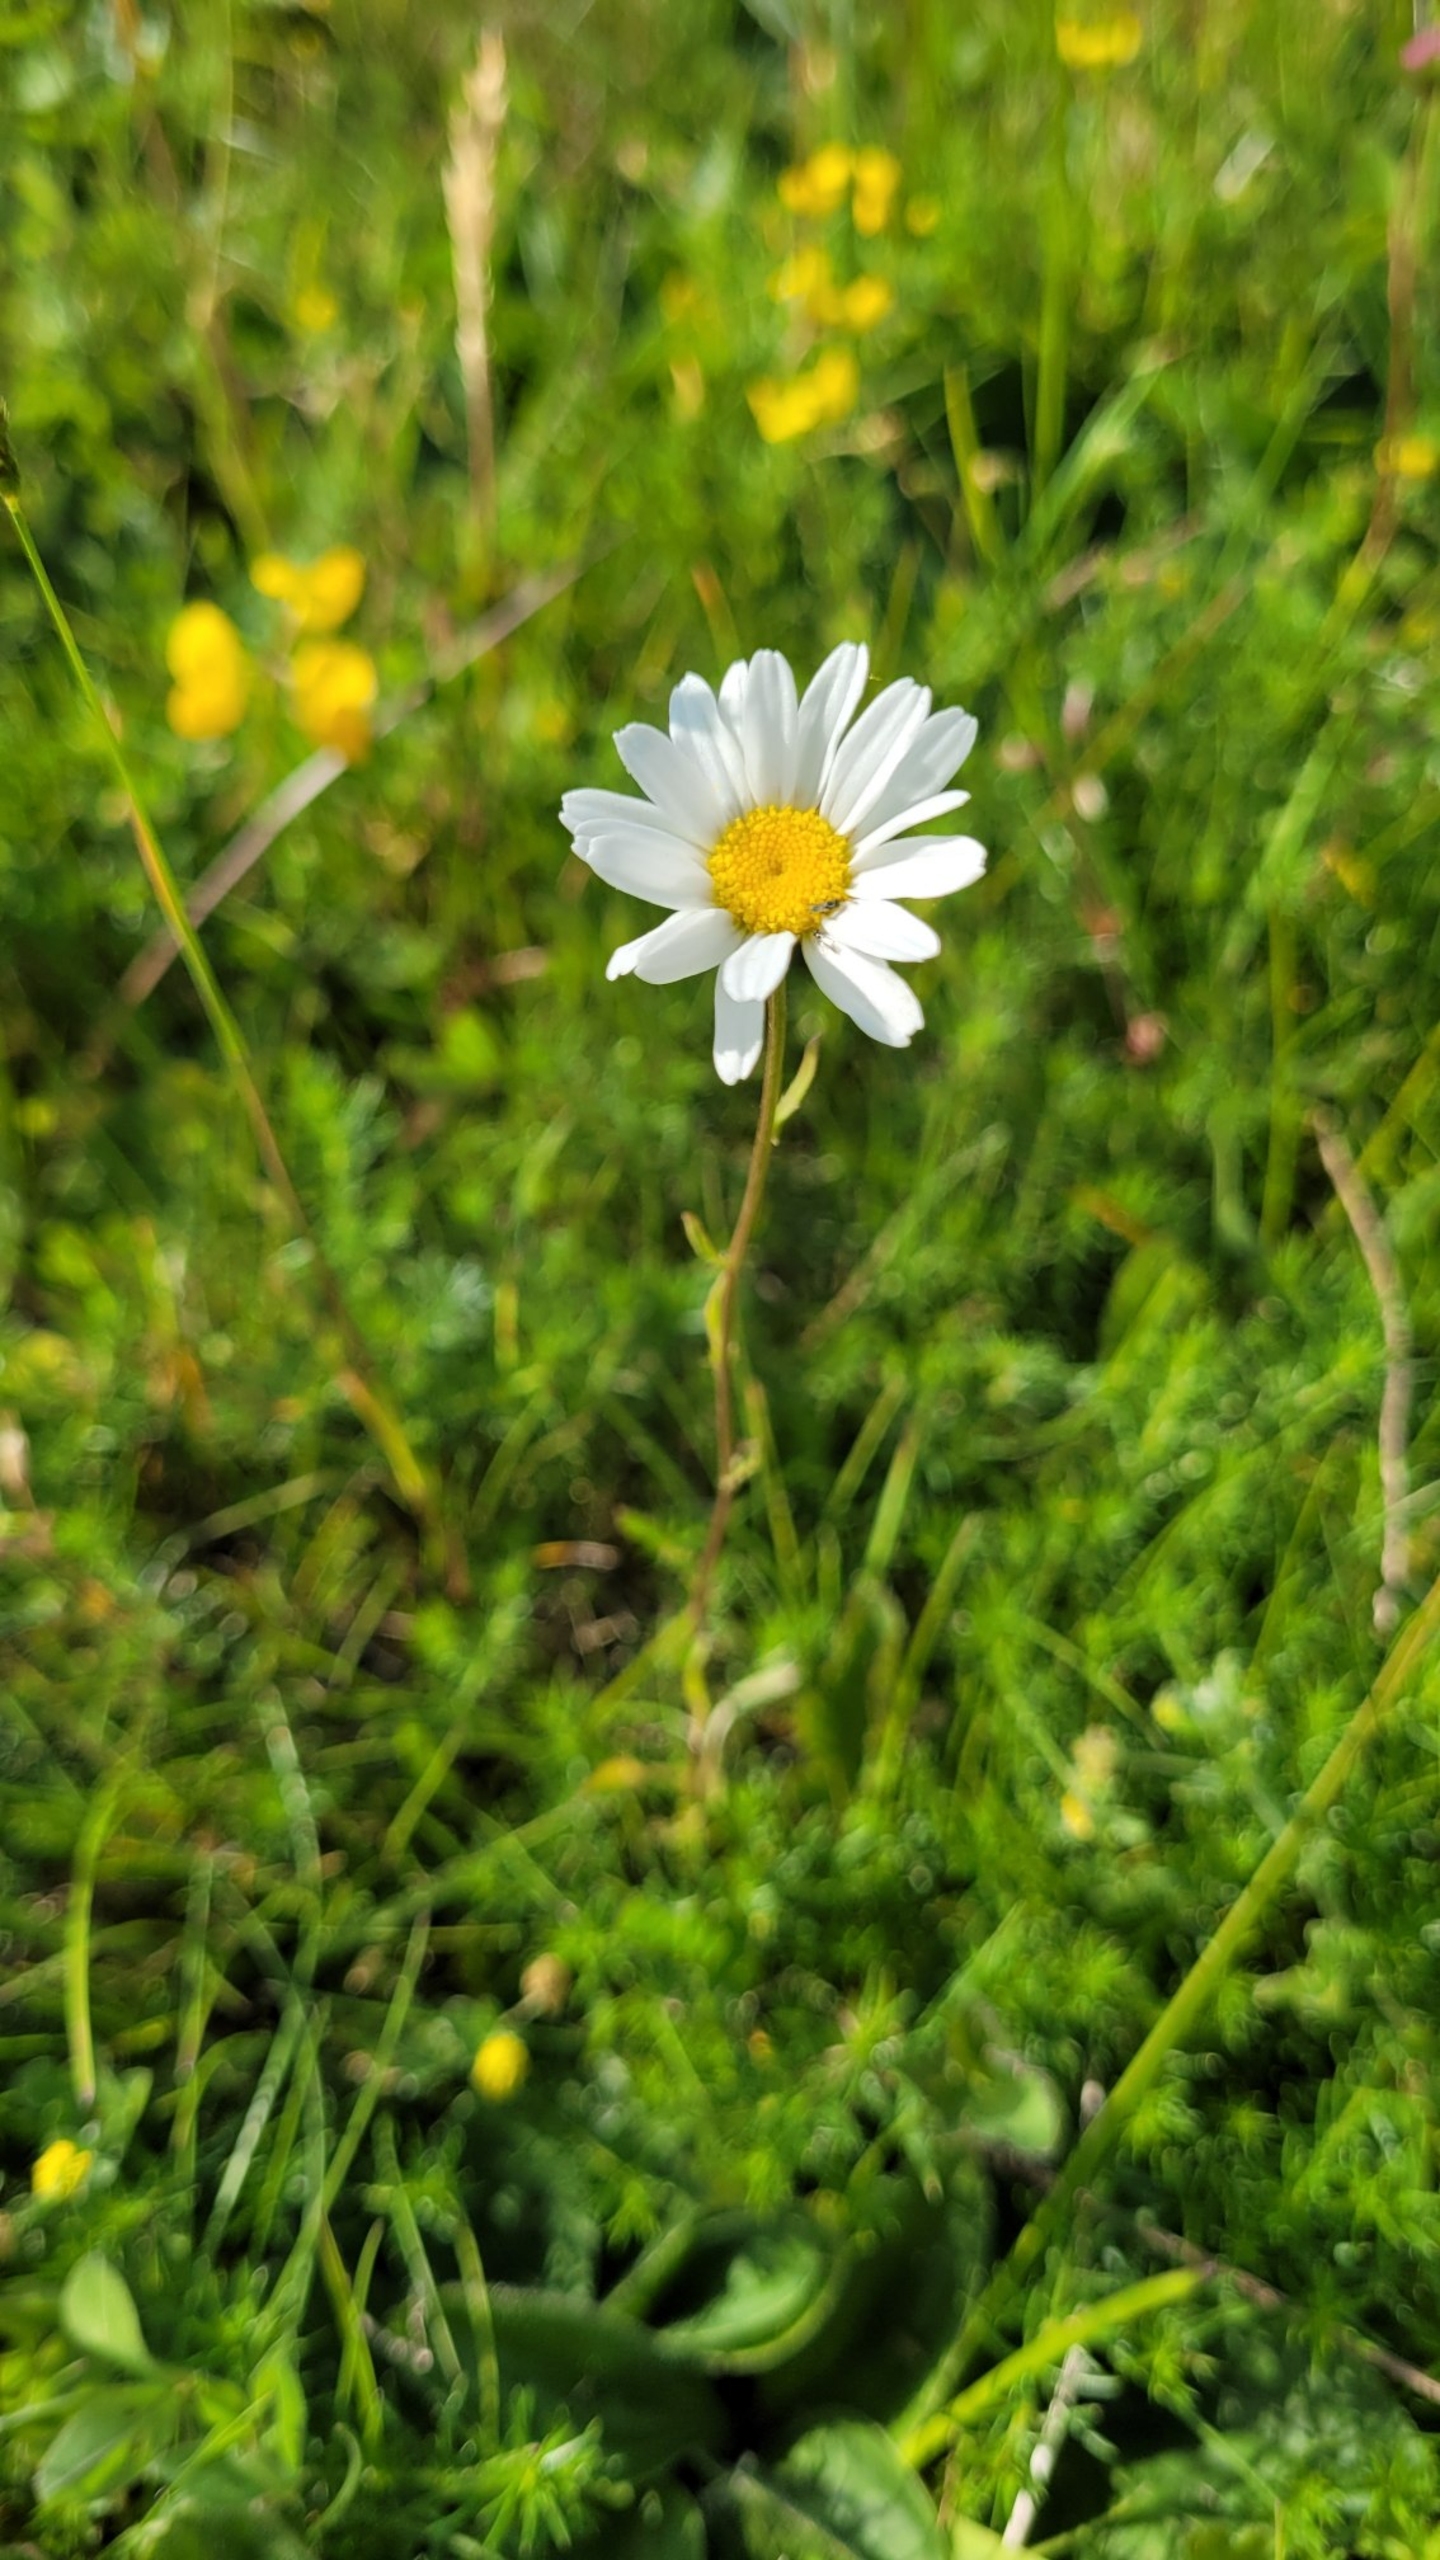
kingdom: Plantae
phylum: Tracheophyta
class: Magnoliopsida
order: Asterales
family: Asteraceae
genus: Leucanthemum
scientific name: Leucanthemum vulgare
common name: Hvid okseøje
